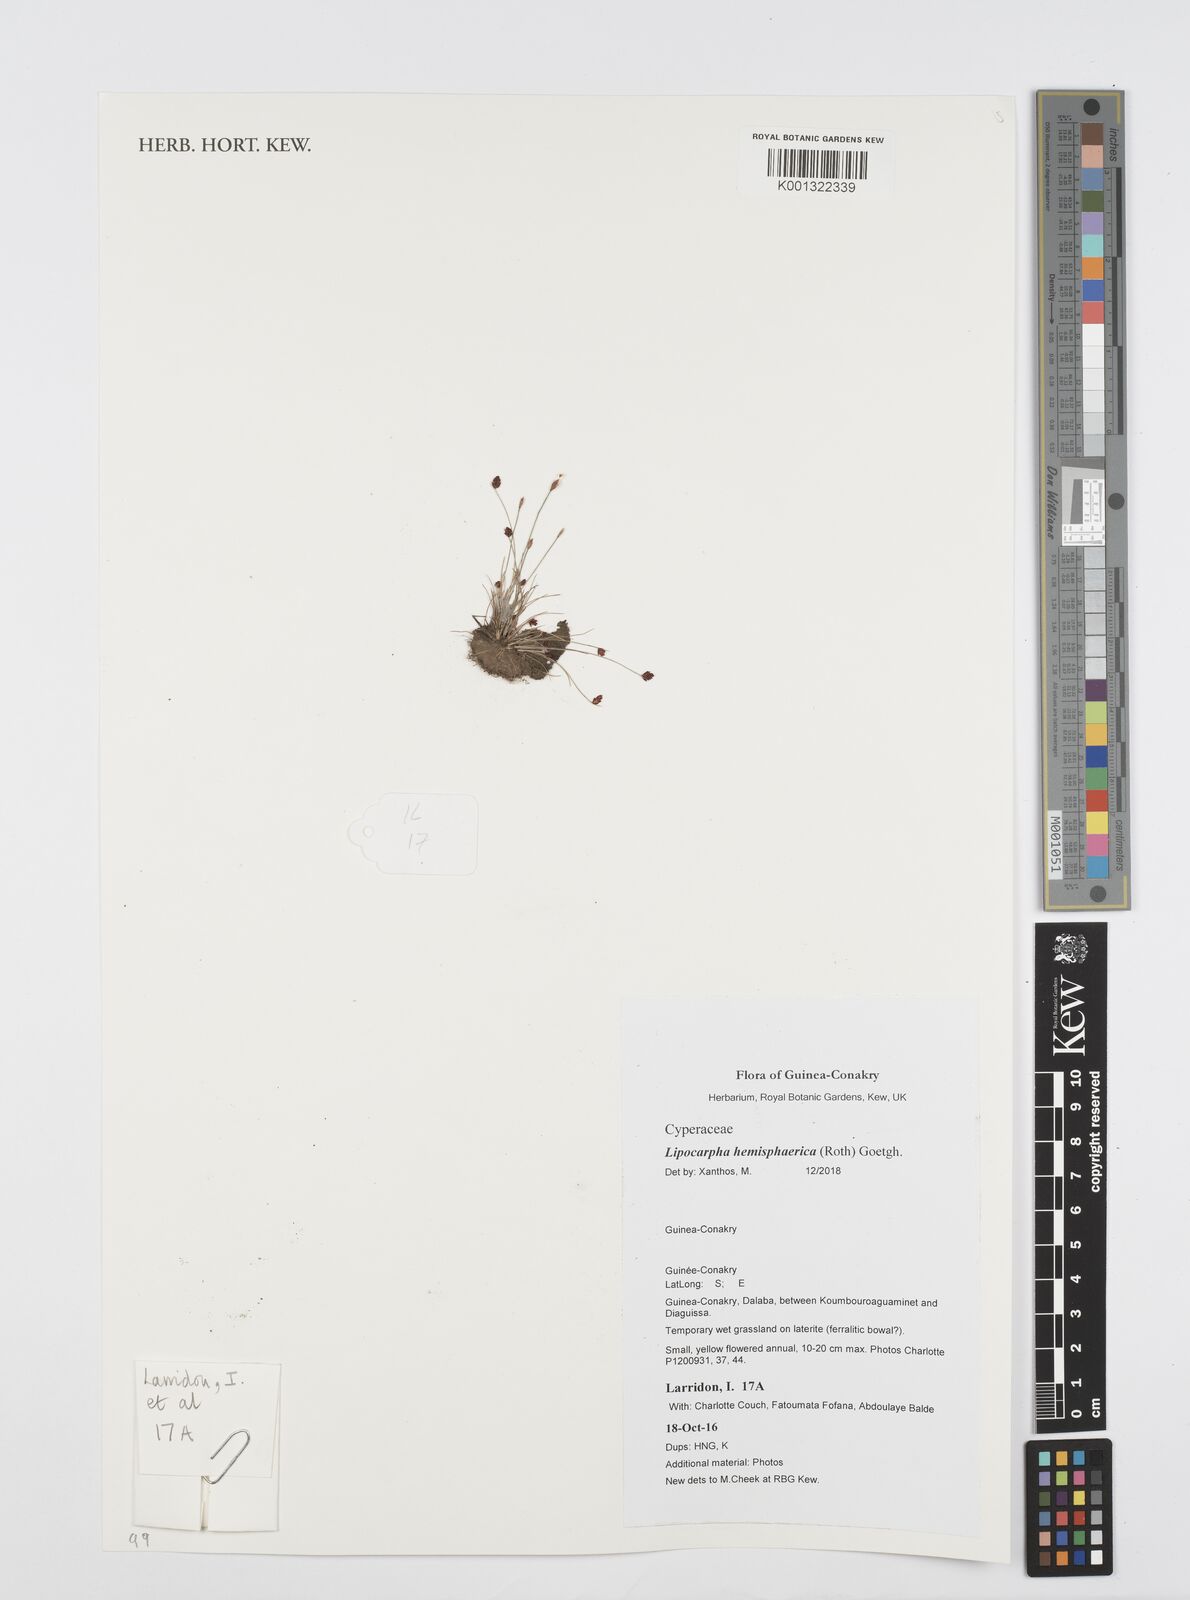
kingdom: Plantae
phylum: Tracheophyta
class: Liliopsida
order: Poales
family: Cyperaceae
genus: Cyperus
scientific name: Cyperus isolepis
